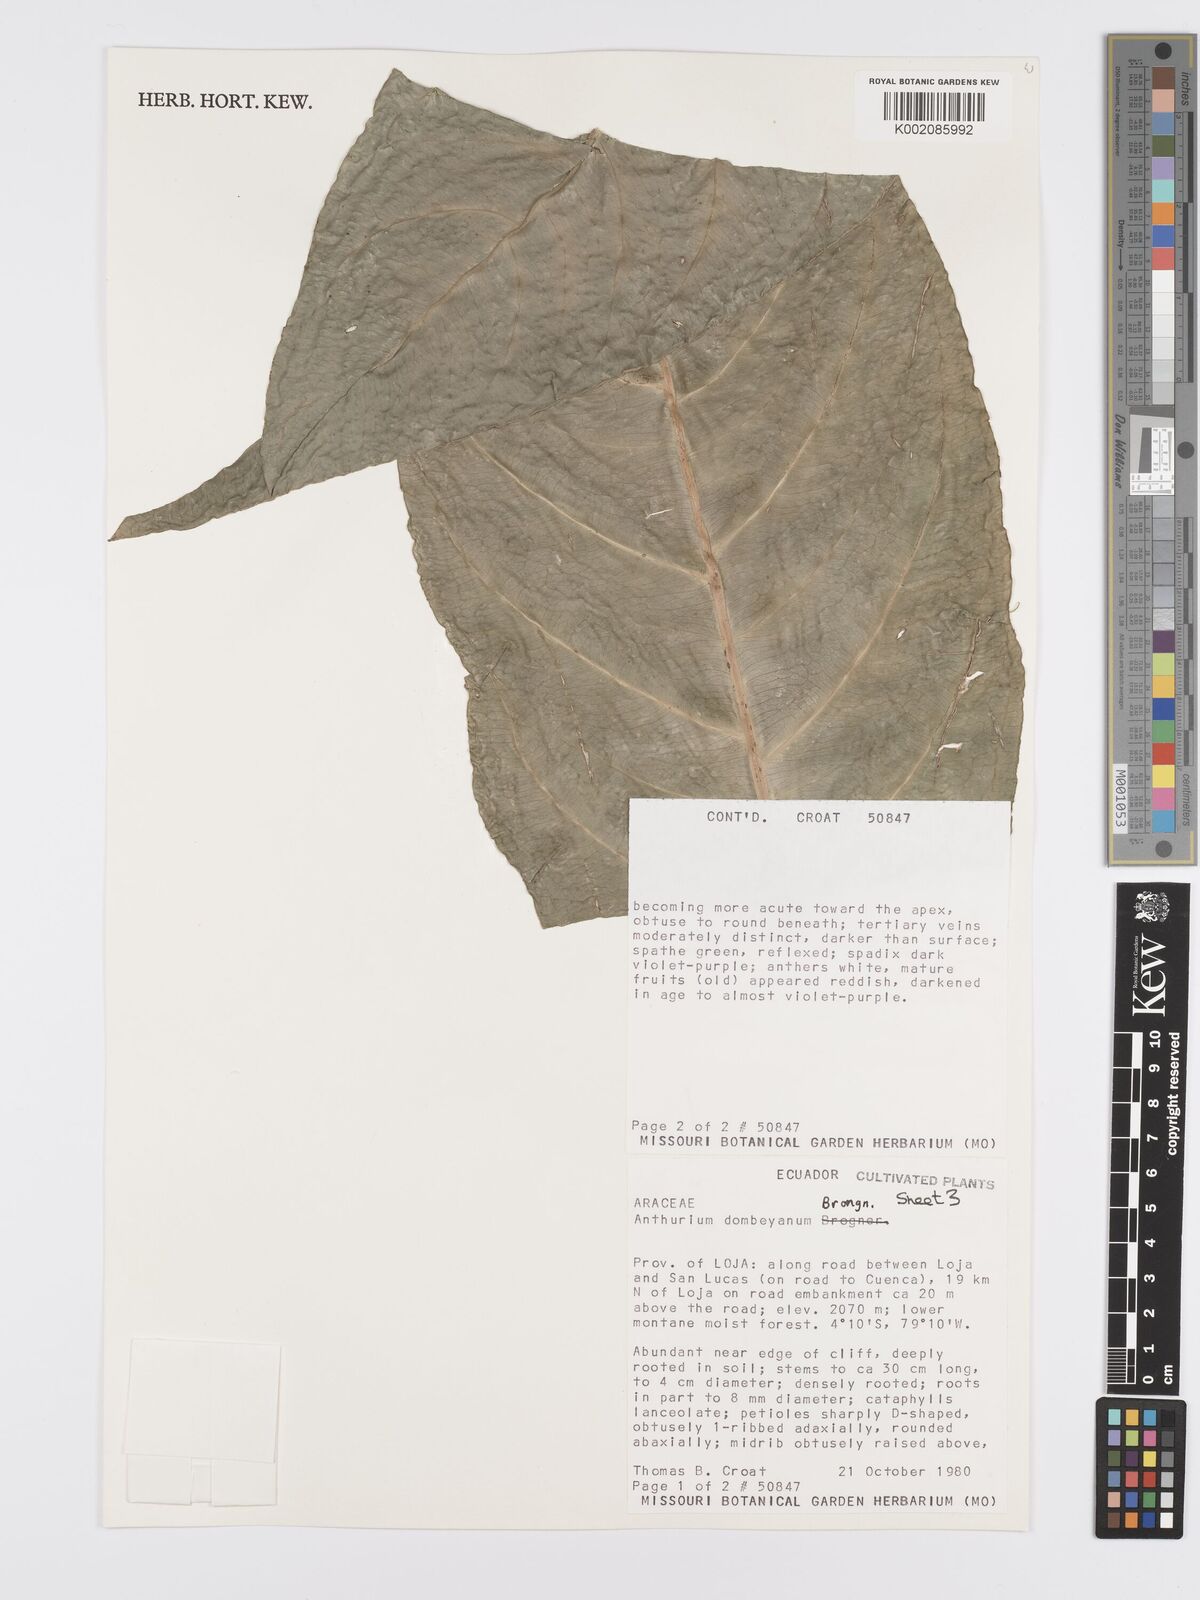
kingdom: Plantae
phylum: Tracheophyta
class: Liliopsida
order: Alismatales
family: Araceae
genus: Anthurium
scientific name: Anthurium dombeyanum
